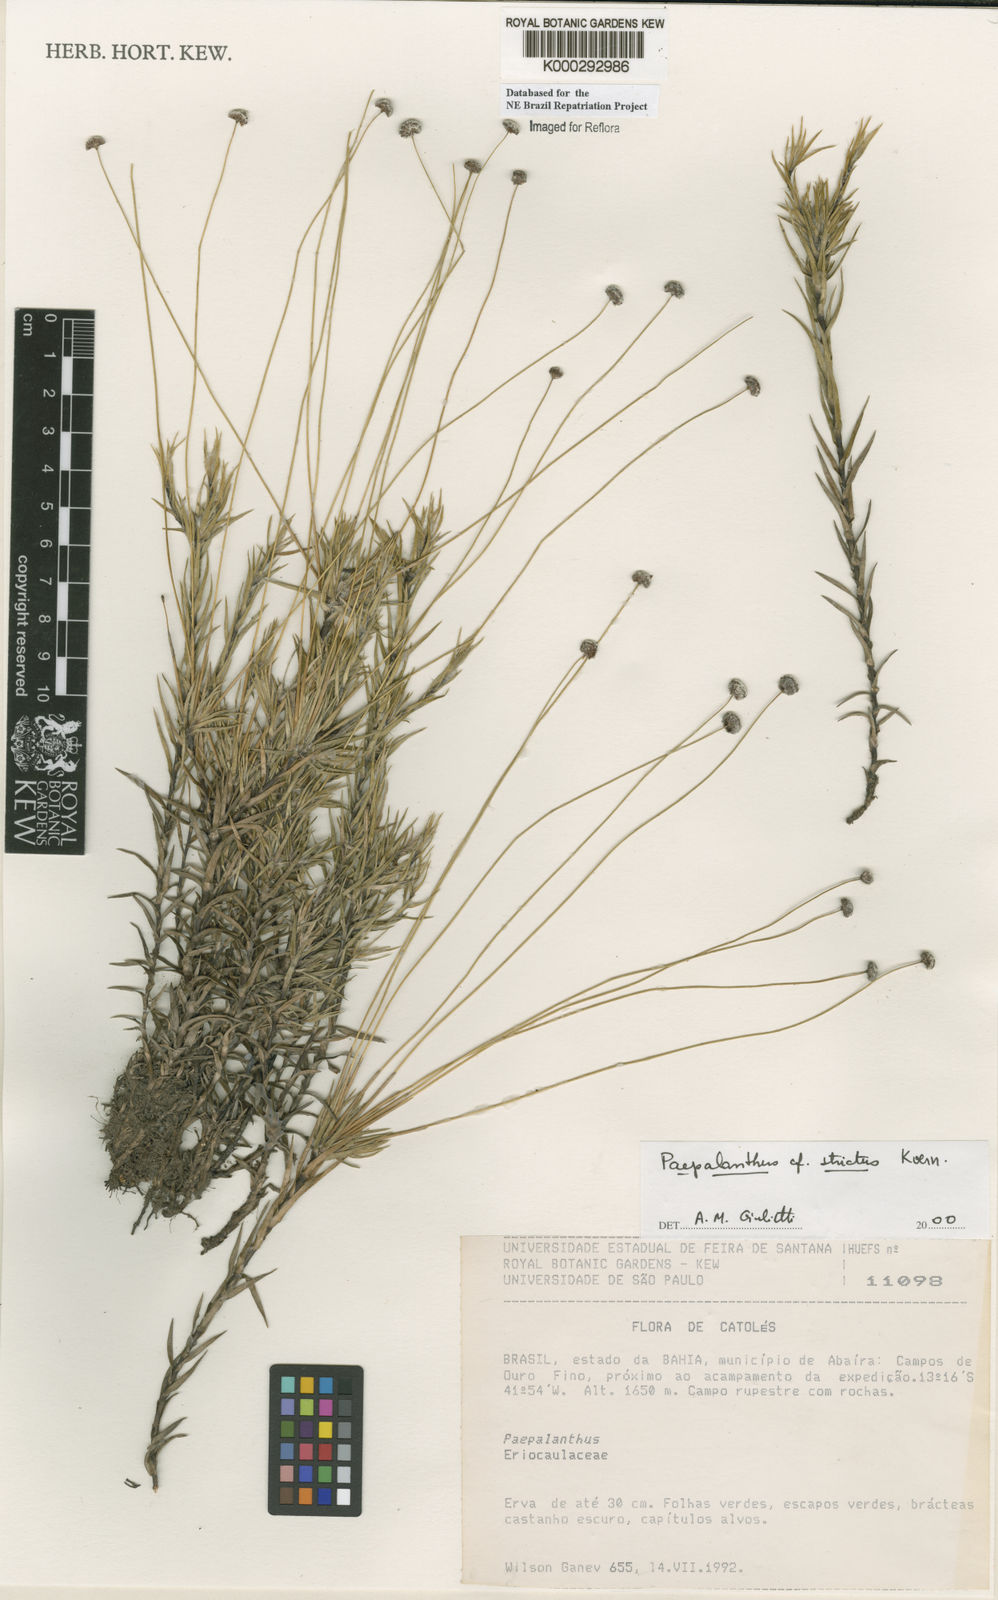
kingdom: Plantae
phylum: Tracheophyta
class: Liliopsida
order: Poales
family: Eriocaulaceae
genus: Paepalanthus
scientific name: Paepalanthus
